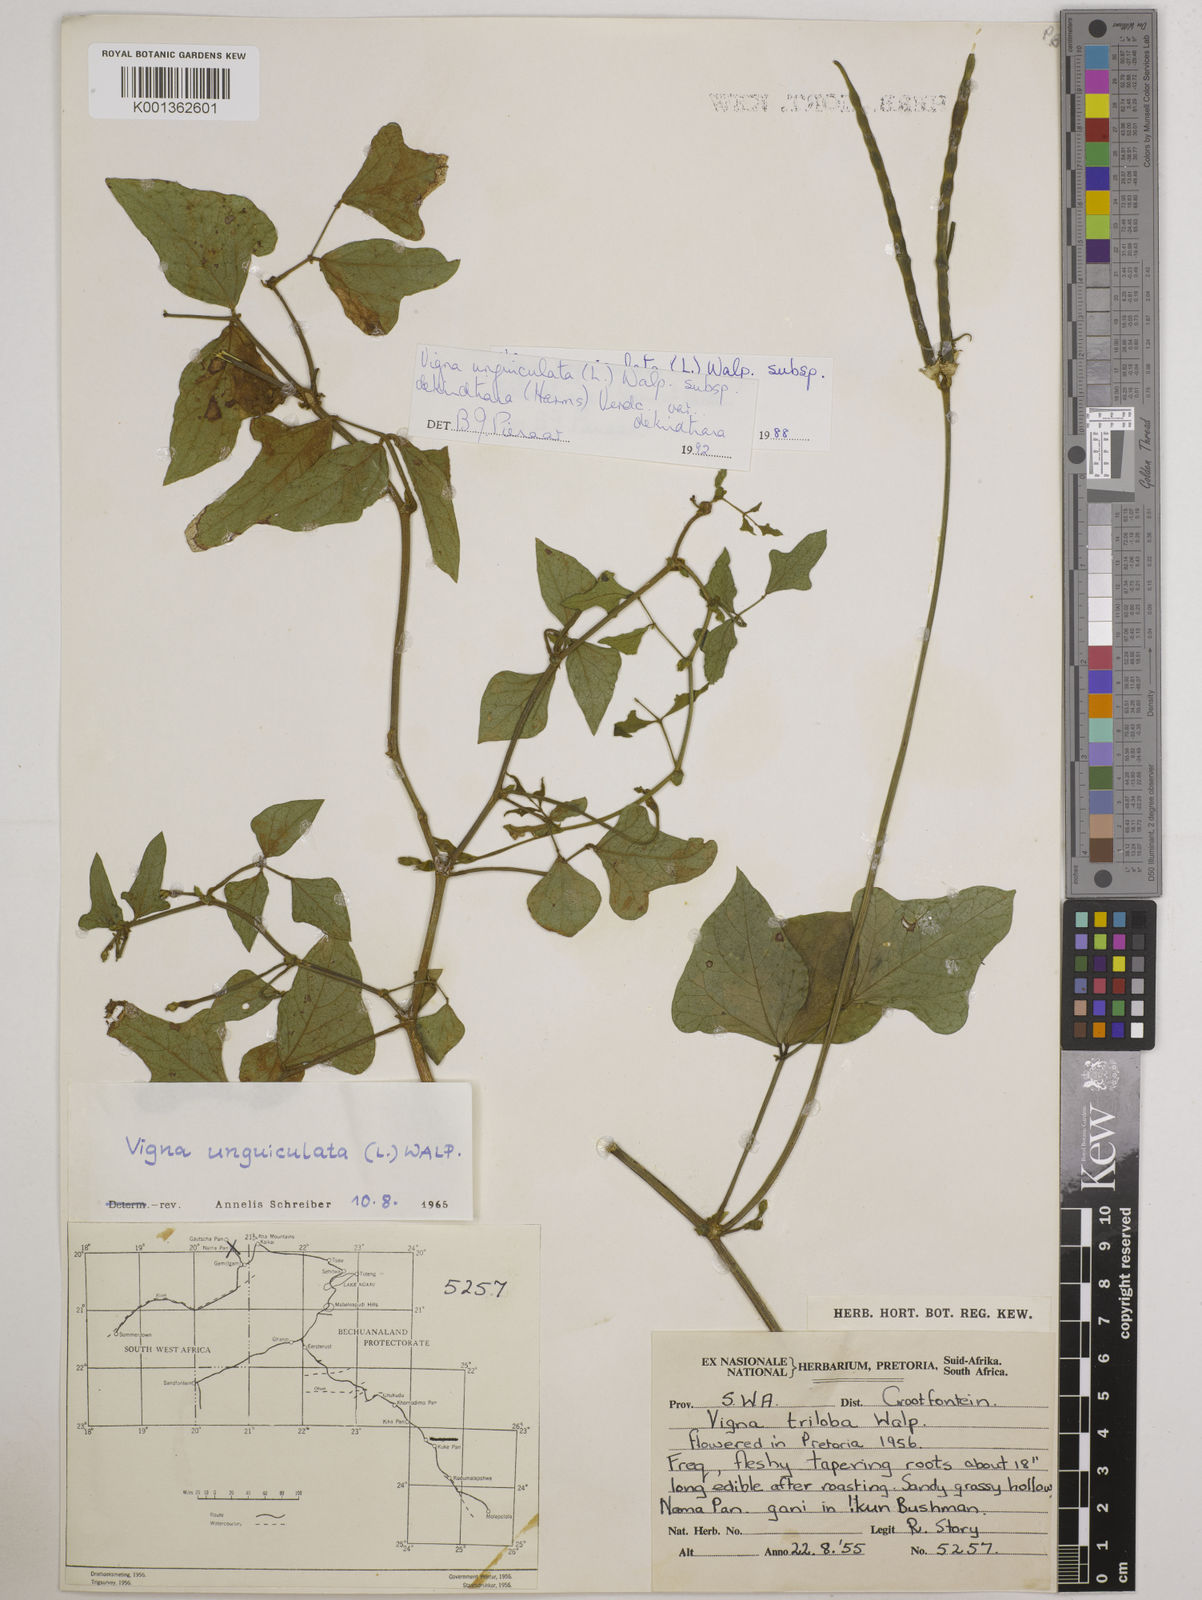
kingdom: Plantae
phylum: Tracheophyta
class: Magnoliopsida
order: Fabales
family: Fabaceae
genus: Vigna
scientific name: Vigna
